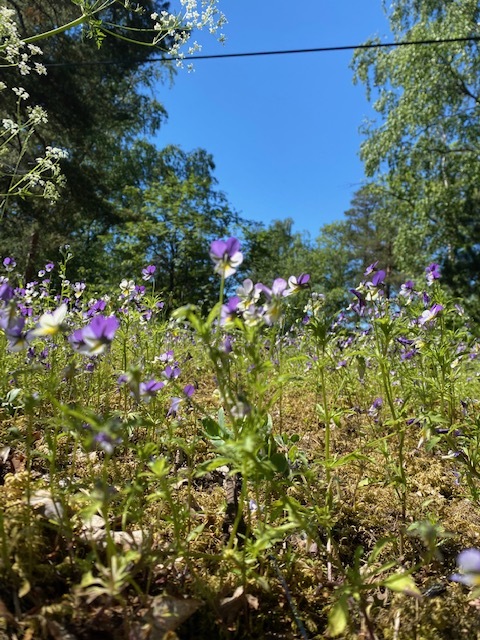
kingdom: Plantae
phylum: Tracheophyta
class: Magnoliopsida
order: Malpighiales
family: Violaceae
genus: Viola
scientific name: Viola tricolor
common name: Pansy
